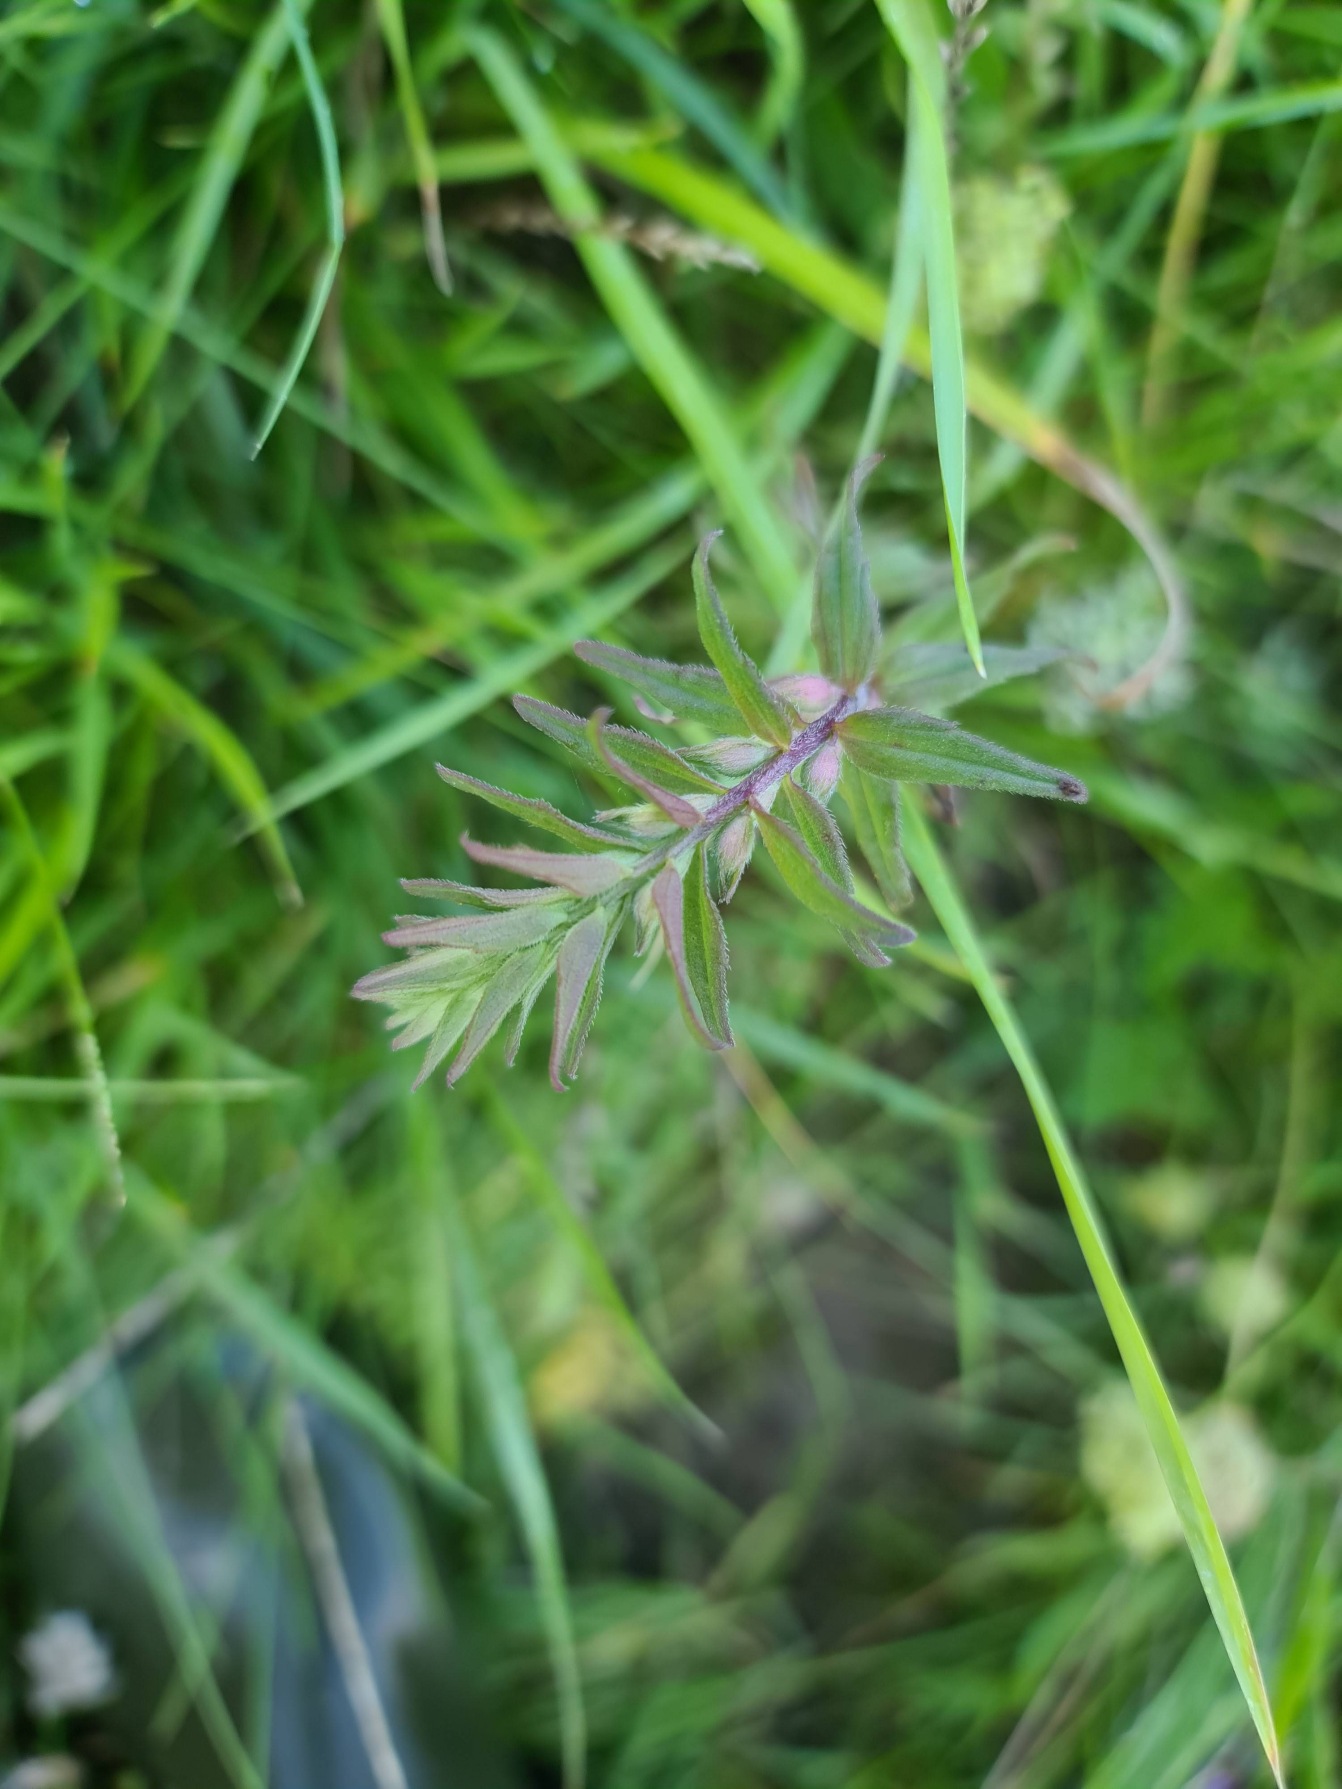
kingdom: Plantae
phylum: Tracheophyta
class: Magnoliopsida
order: Lamiales
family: Orobanchaceae
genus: Odontites
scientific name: Odontites
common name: Rødtopslægten
